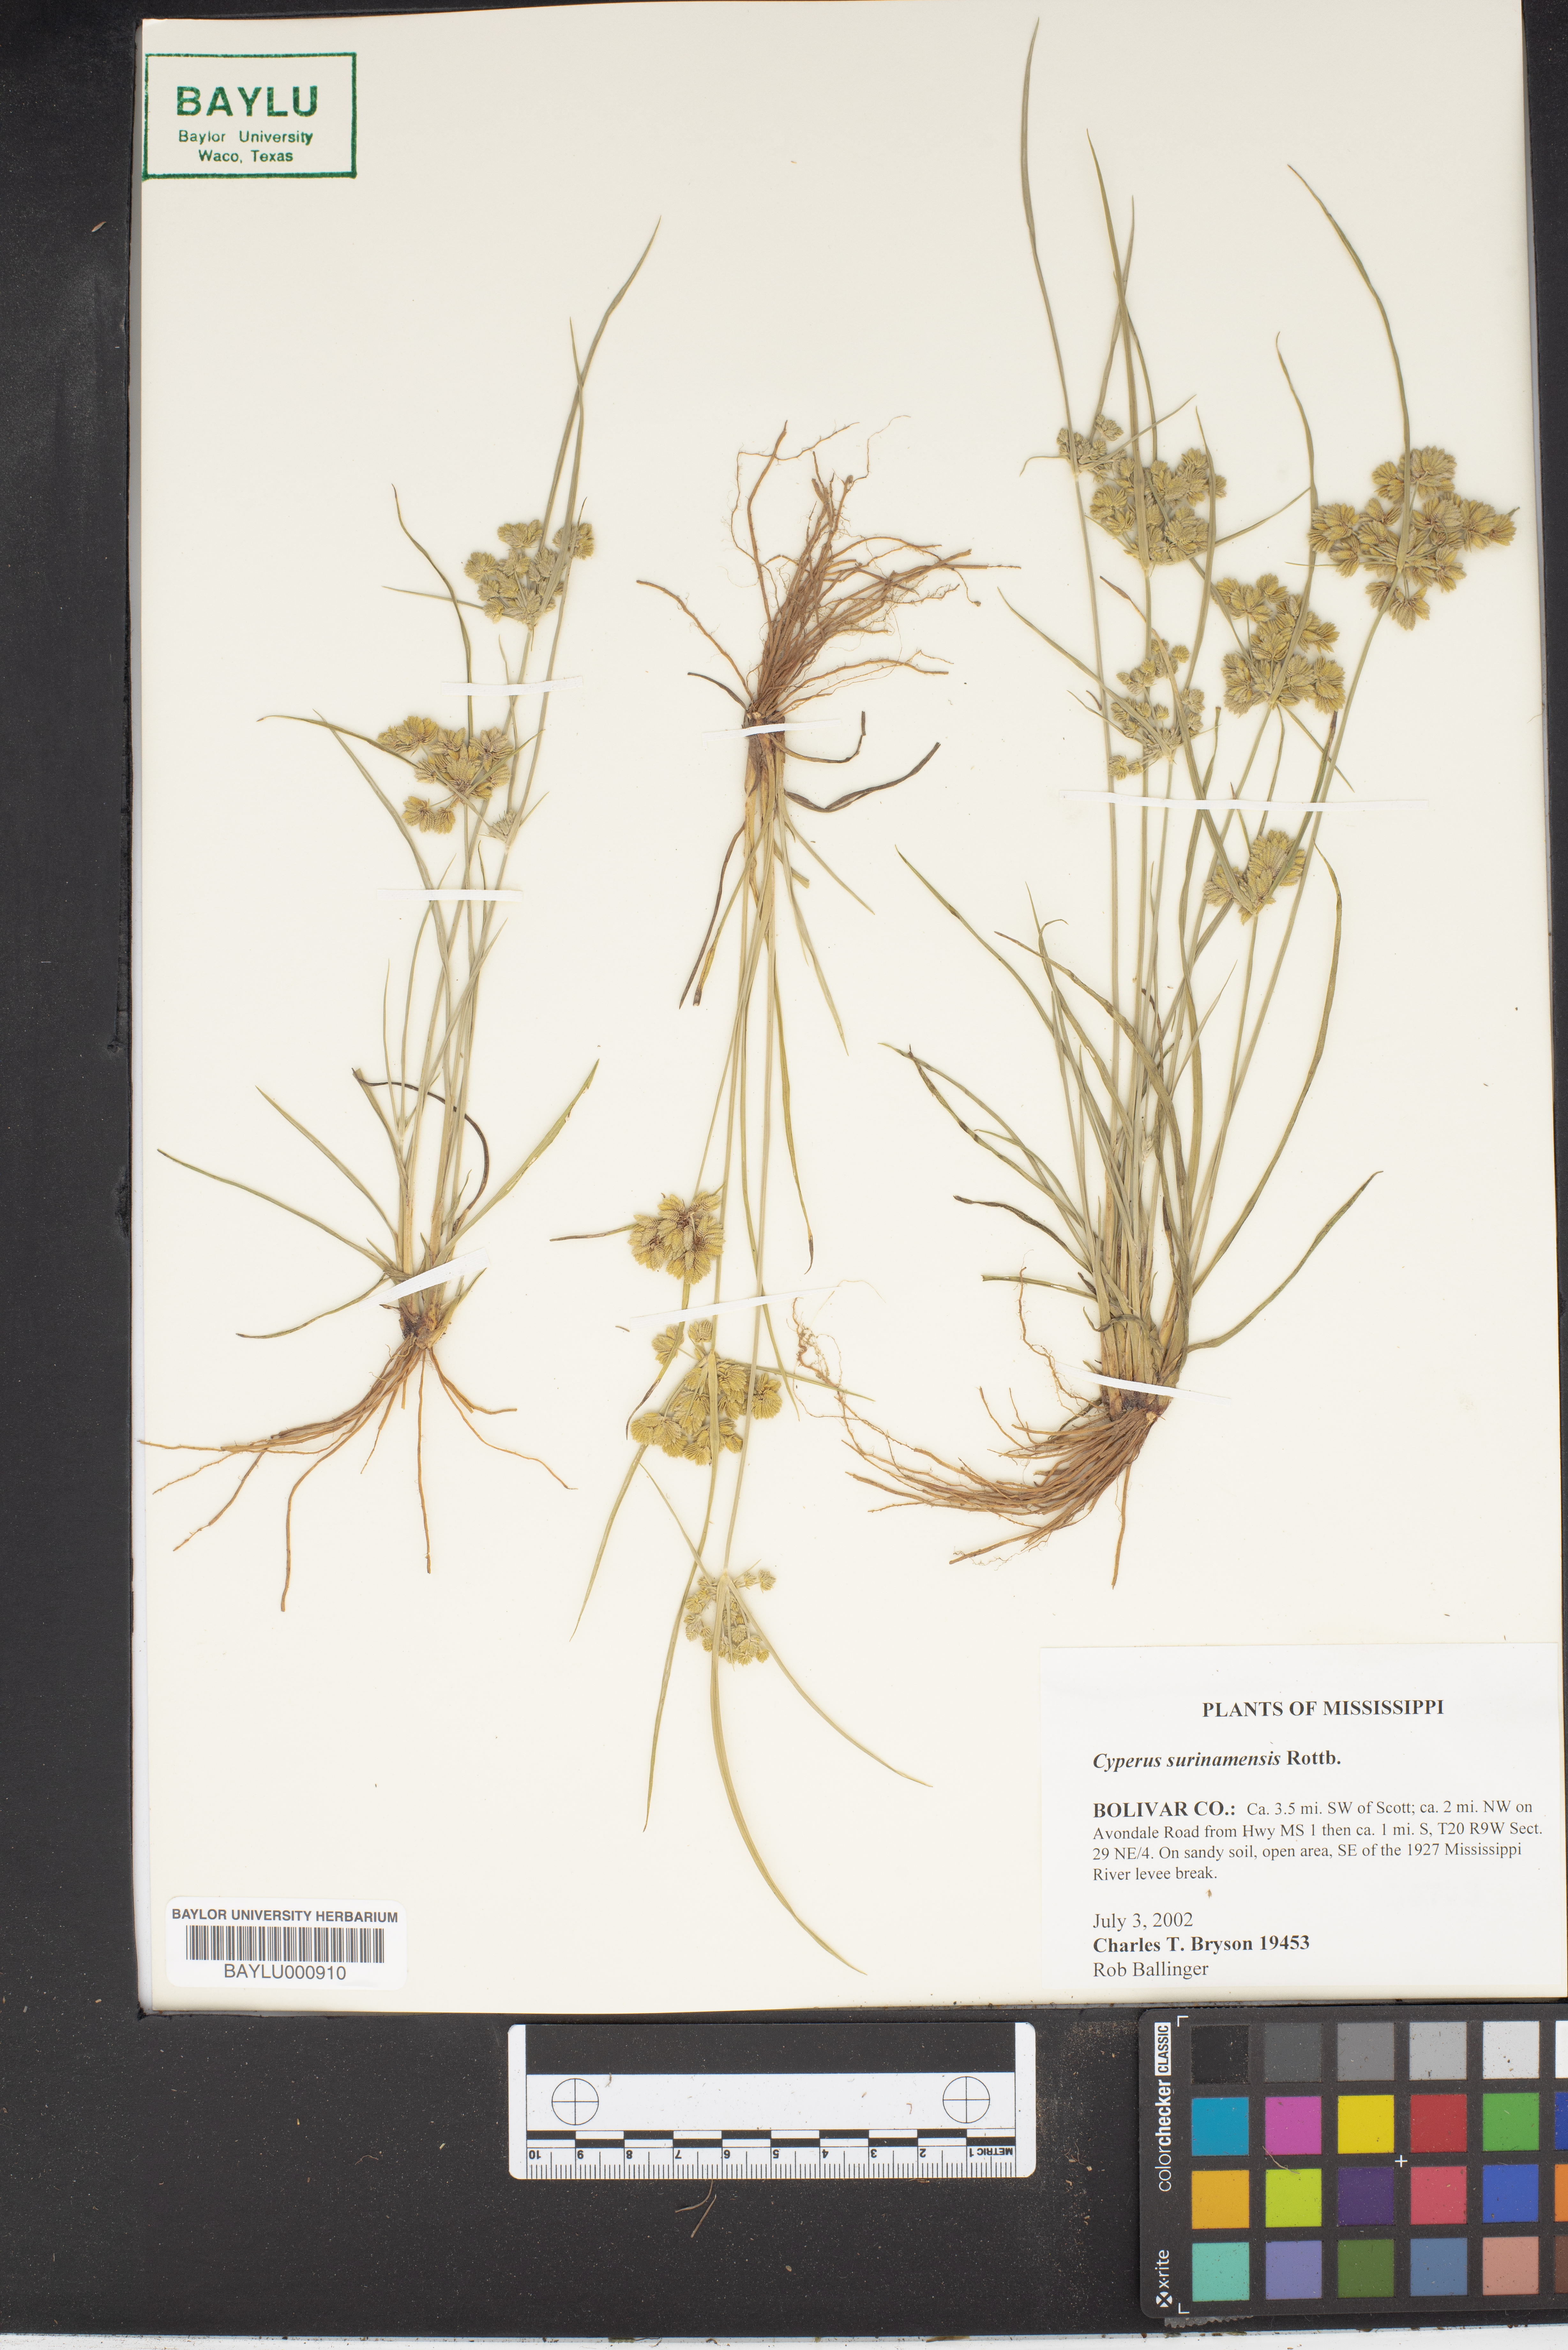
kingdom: Plantae
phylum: Tracheophyta
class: Liliopsida
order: Poales
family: Cyperaceae
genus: Cyperus
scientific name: Cyperus surinamensis
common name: Tropical flat sedge
